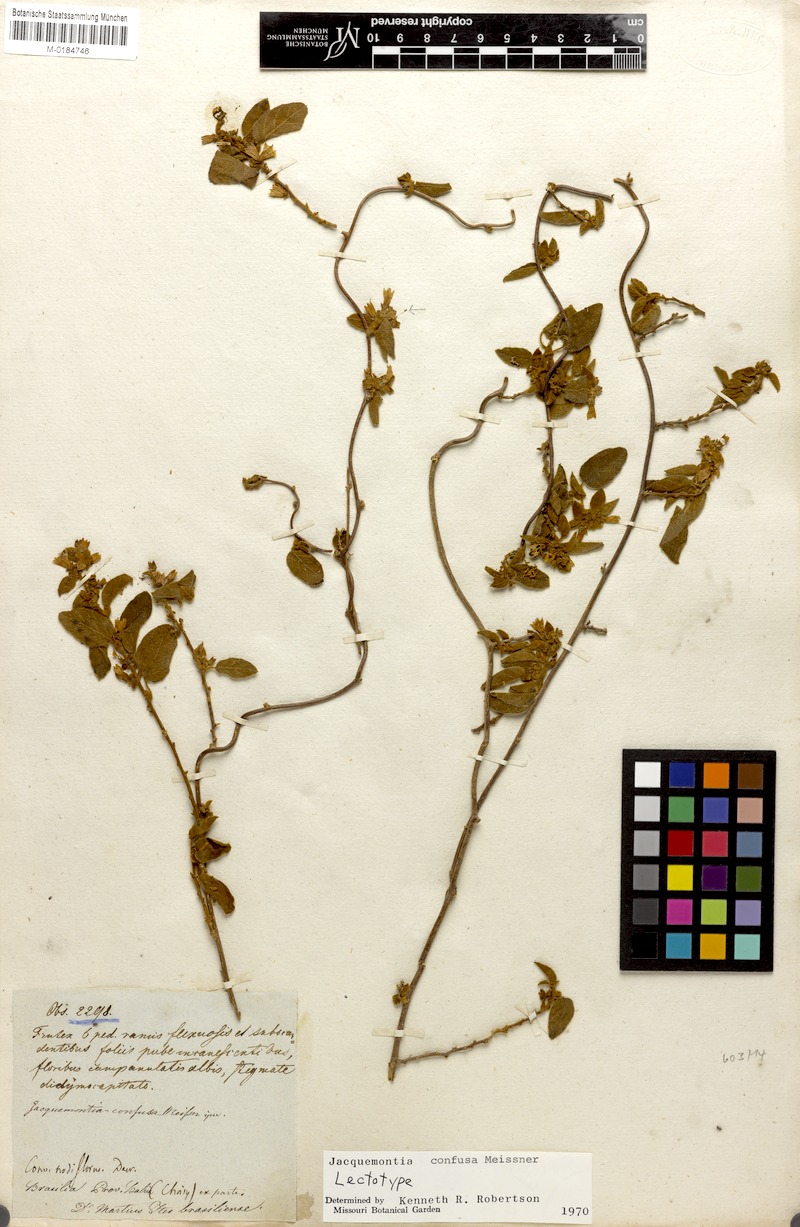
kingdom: Plantae
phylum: Tracheophyta
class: Magnoliopsida
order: Solanales
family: Convolvulaceae
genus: Jacquemontia
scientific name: Jacquemontia nodiflora
